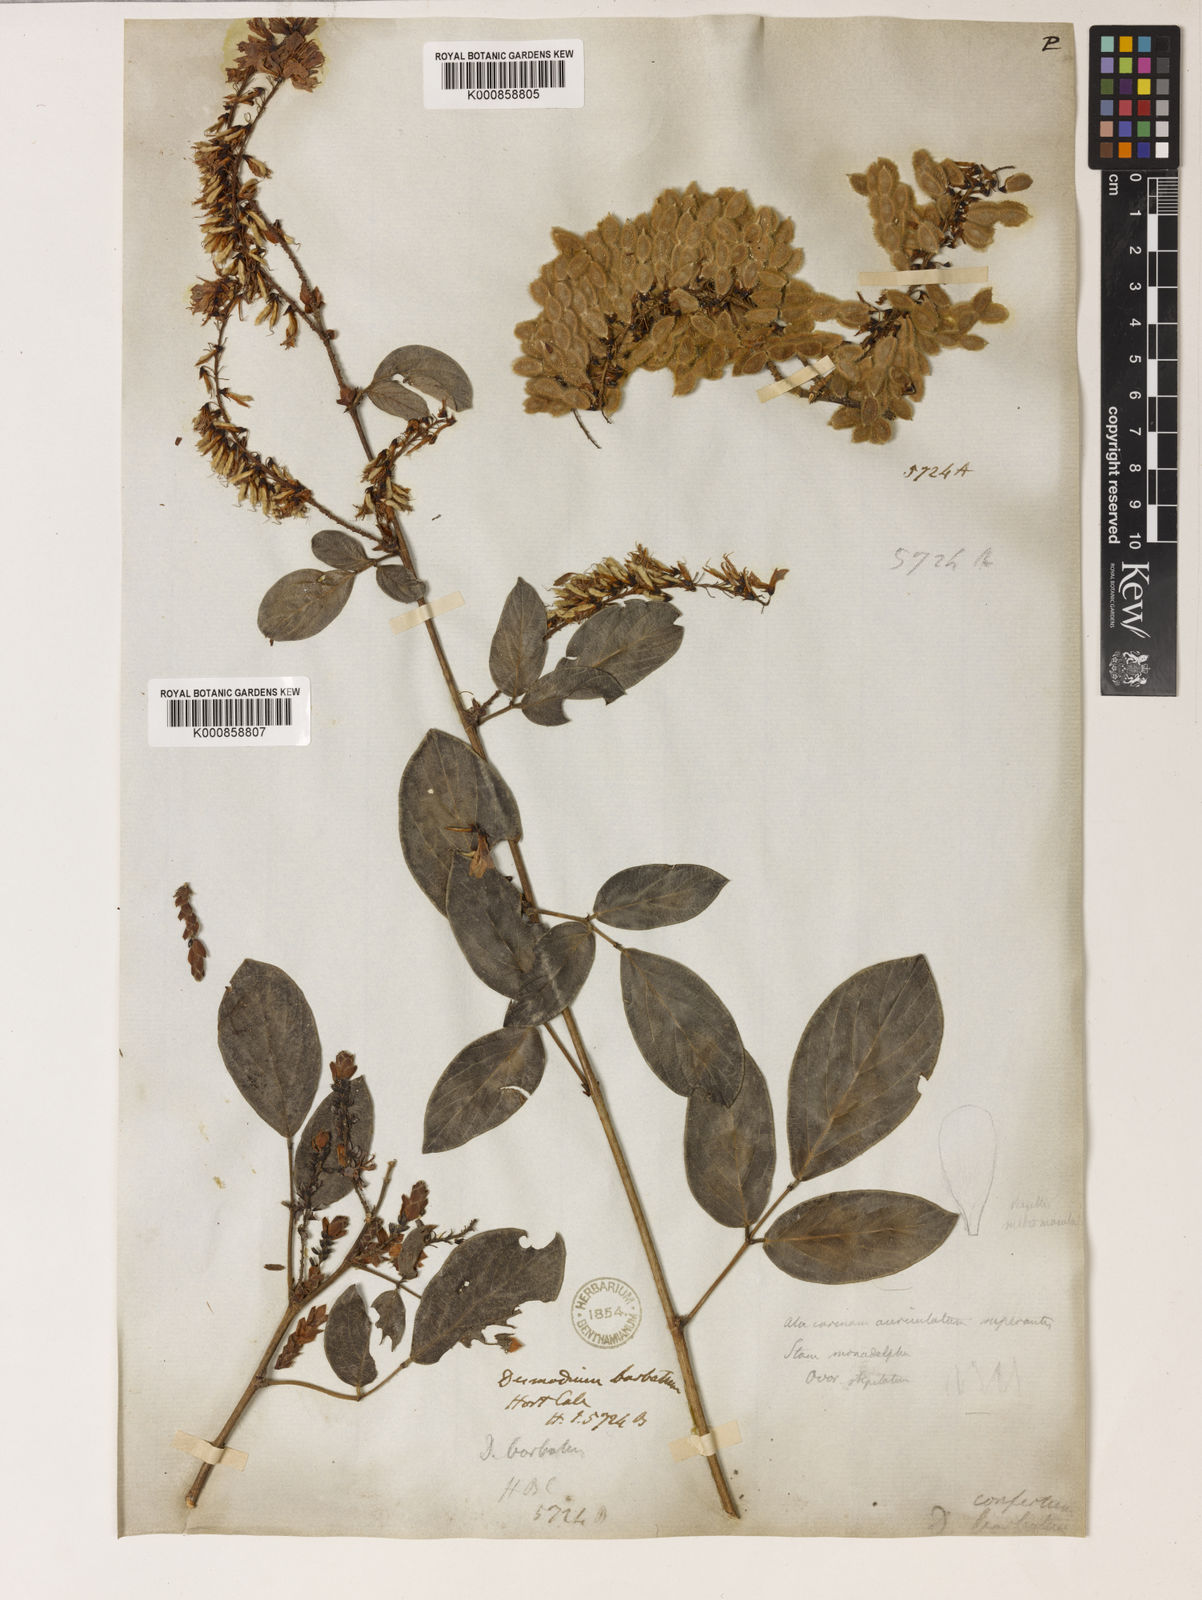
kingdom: Plantae
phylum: Tracheophyta
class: Magnoliopsida
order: Fabales
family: Fabaceae
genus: Ototropis
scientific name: Ototropis conferta
